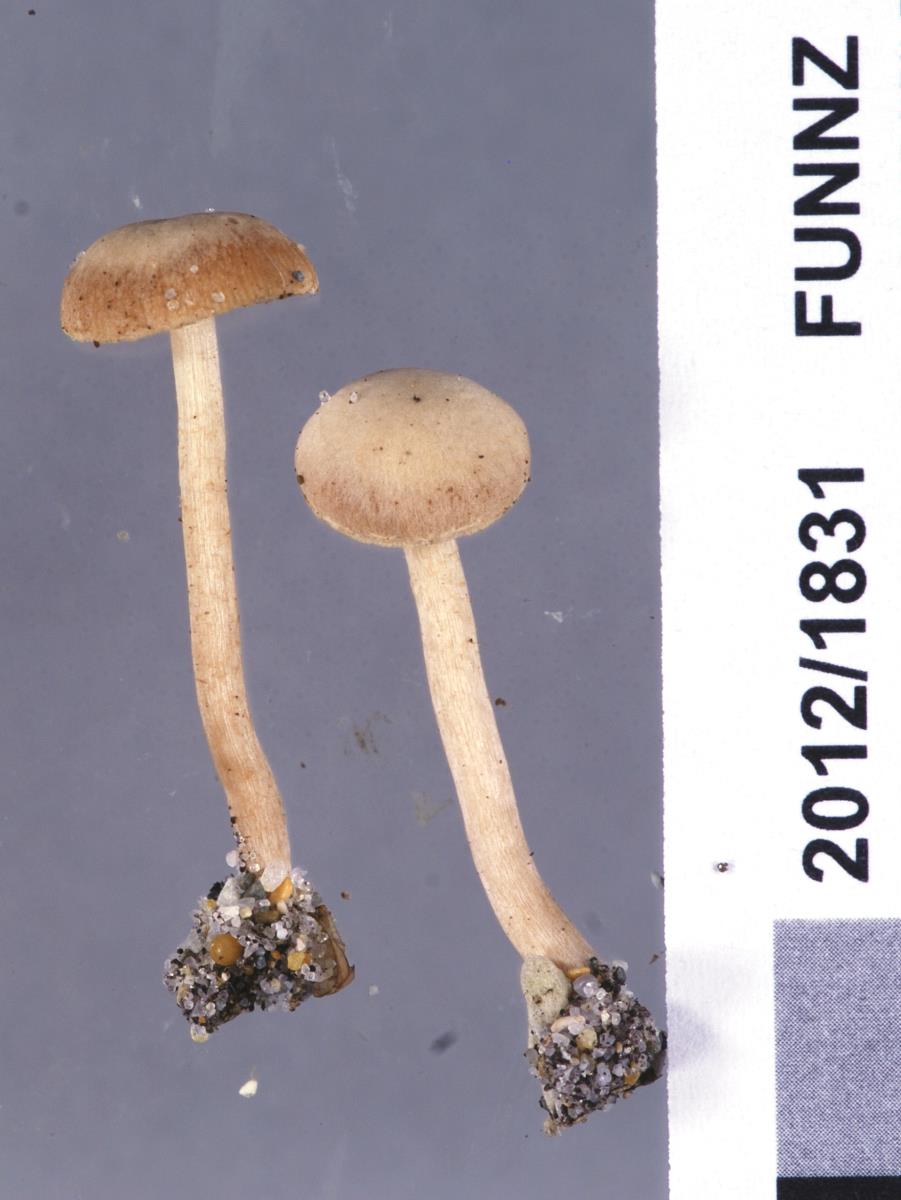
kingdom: Fungi
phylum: Basidiomycota
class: Agaricomycetes
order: Agaricales
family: Tubariaceae
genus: Tubaria
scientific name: Tubaria furfuracea
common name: Scurfy twiglet
